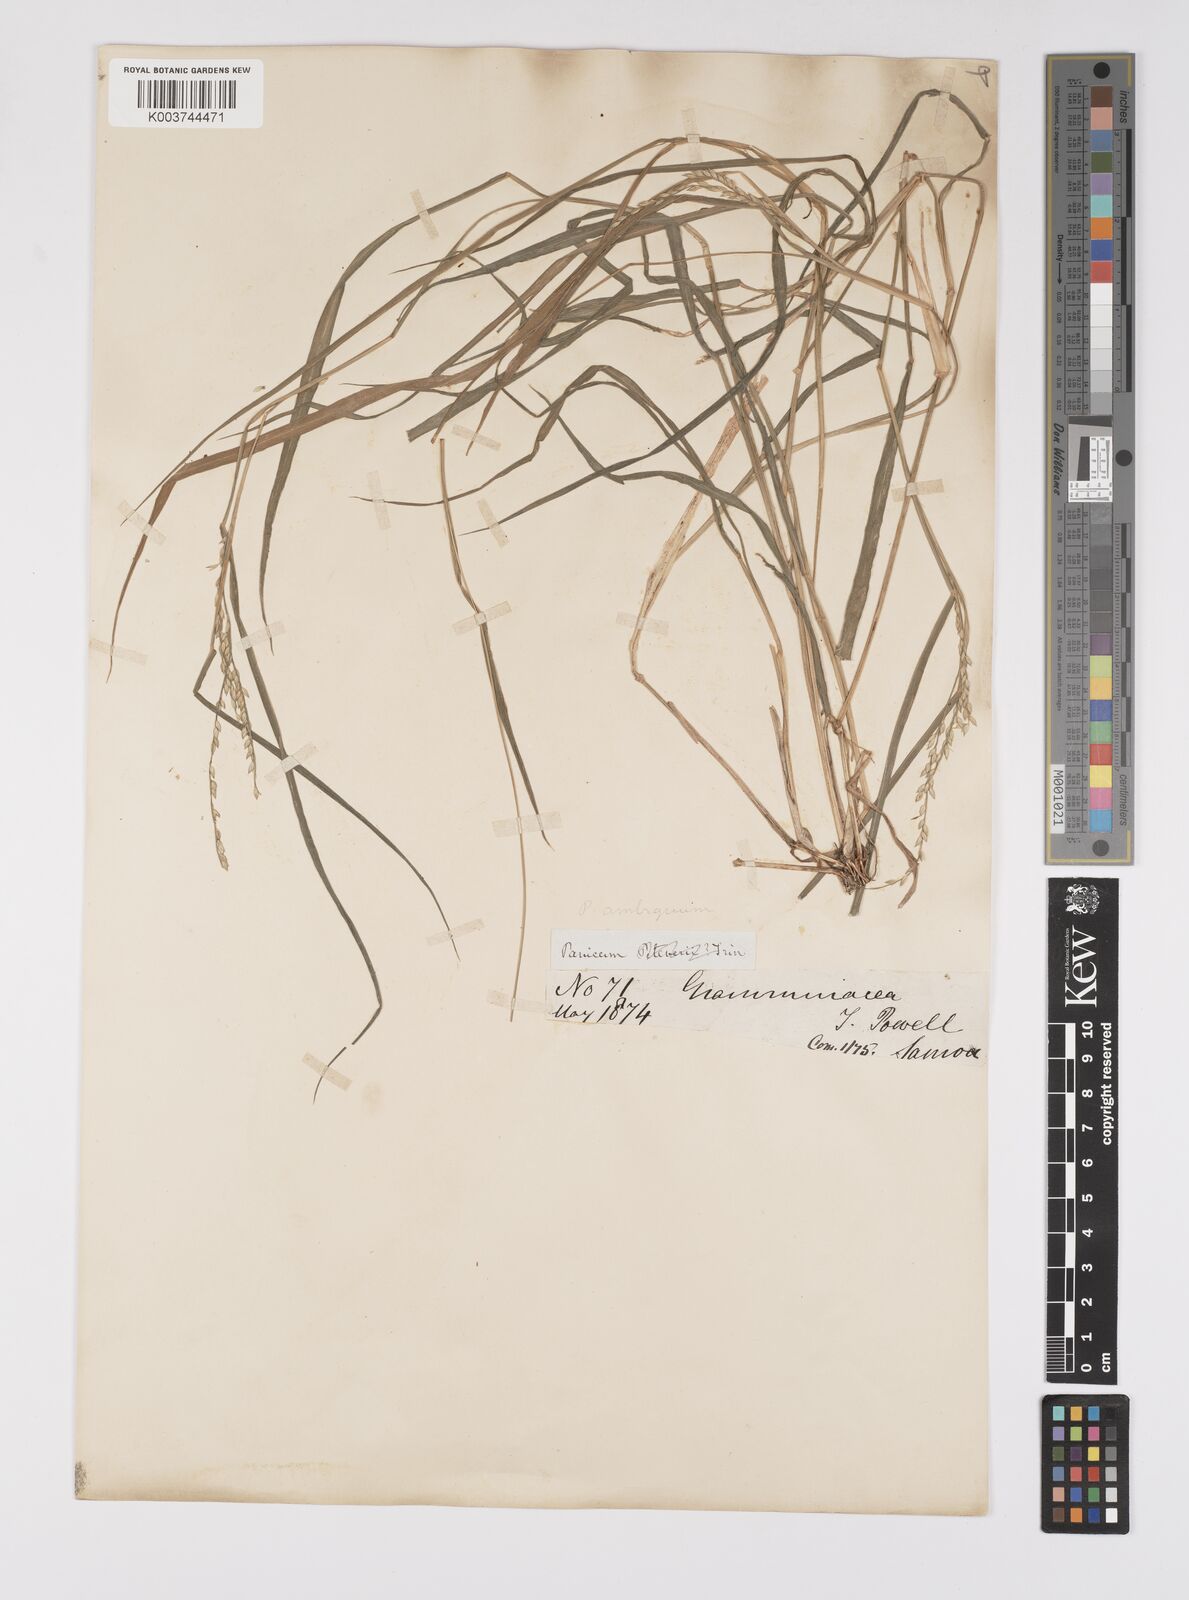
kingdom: Plantae
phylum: Tracheophyta
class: Liliopsida
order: Poales
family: Poaceae
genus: Urochloa
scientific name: Urochloa glumaris
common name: Thurston grass
